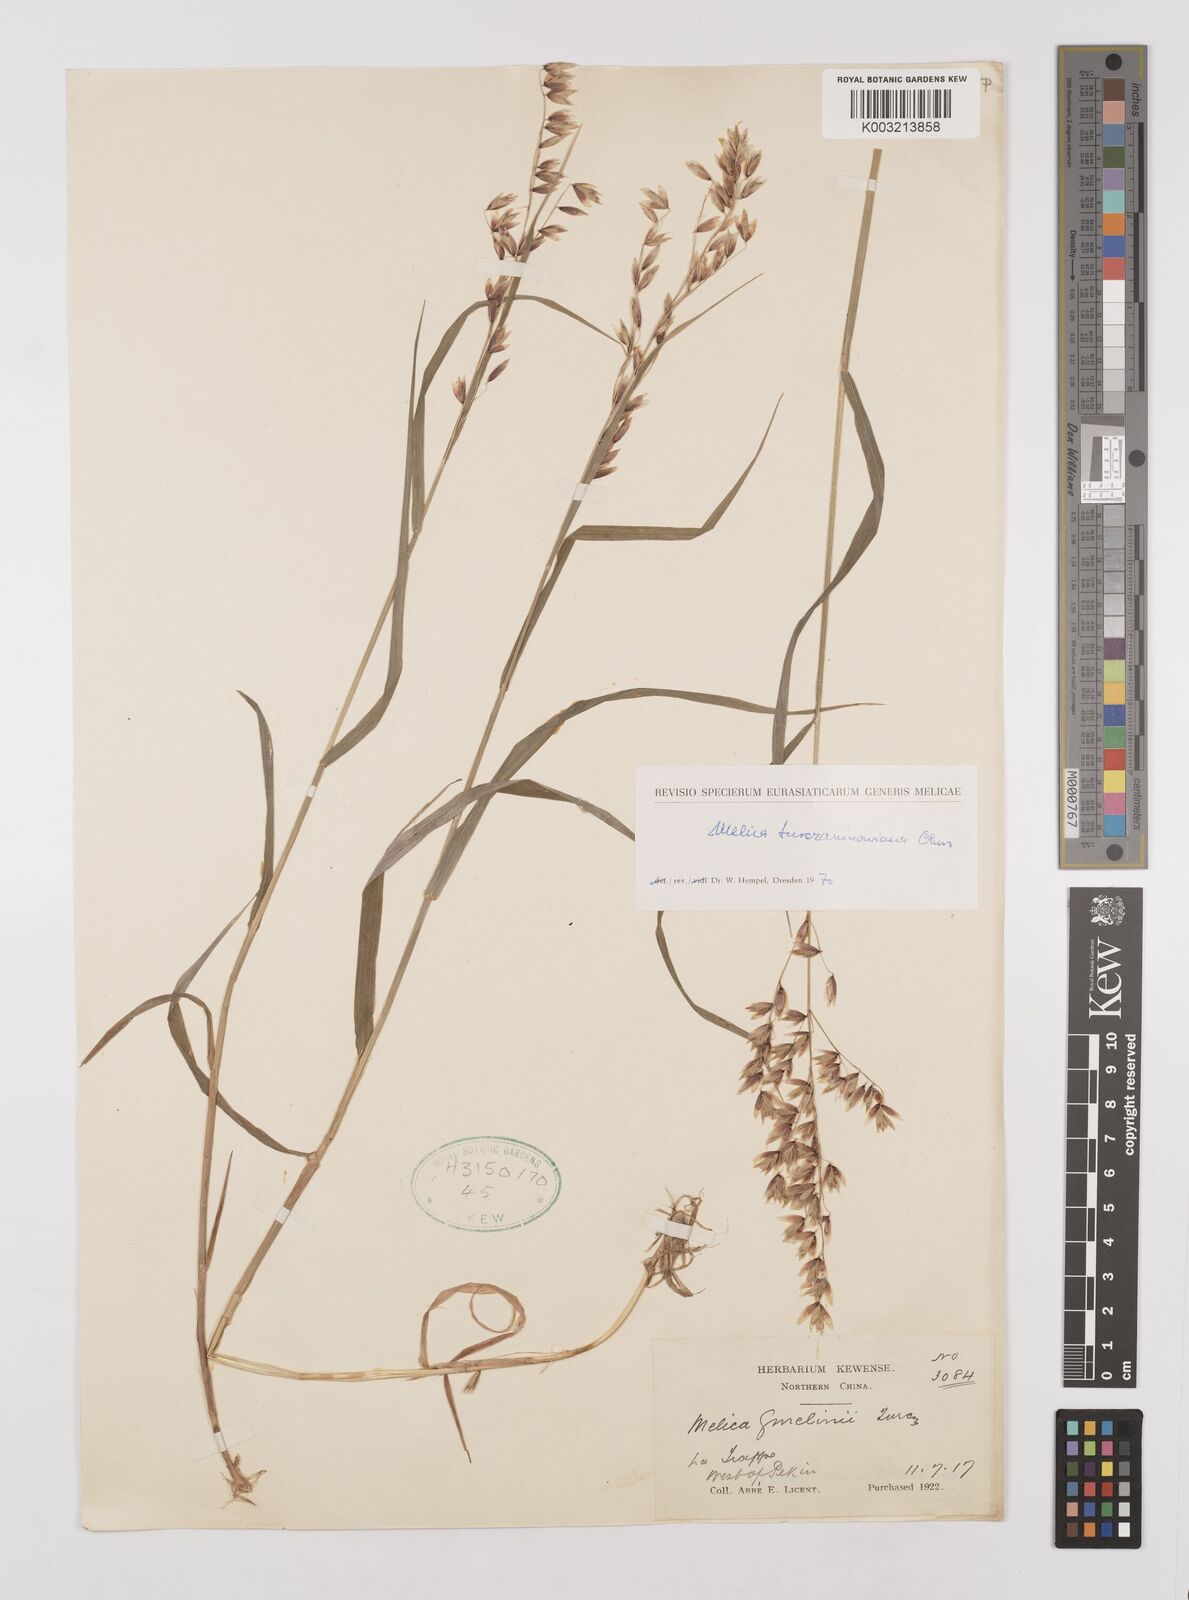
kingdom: Plantae
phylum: Tracheophyta
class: Liliopsida
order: Poales
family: Poaceae
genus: Melica
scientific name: Melica turczaninowiana
